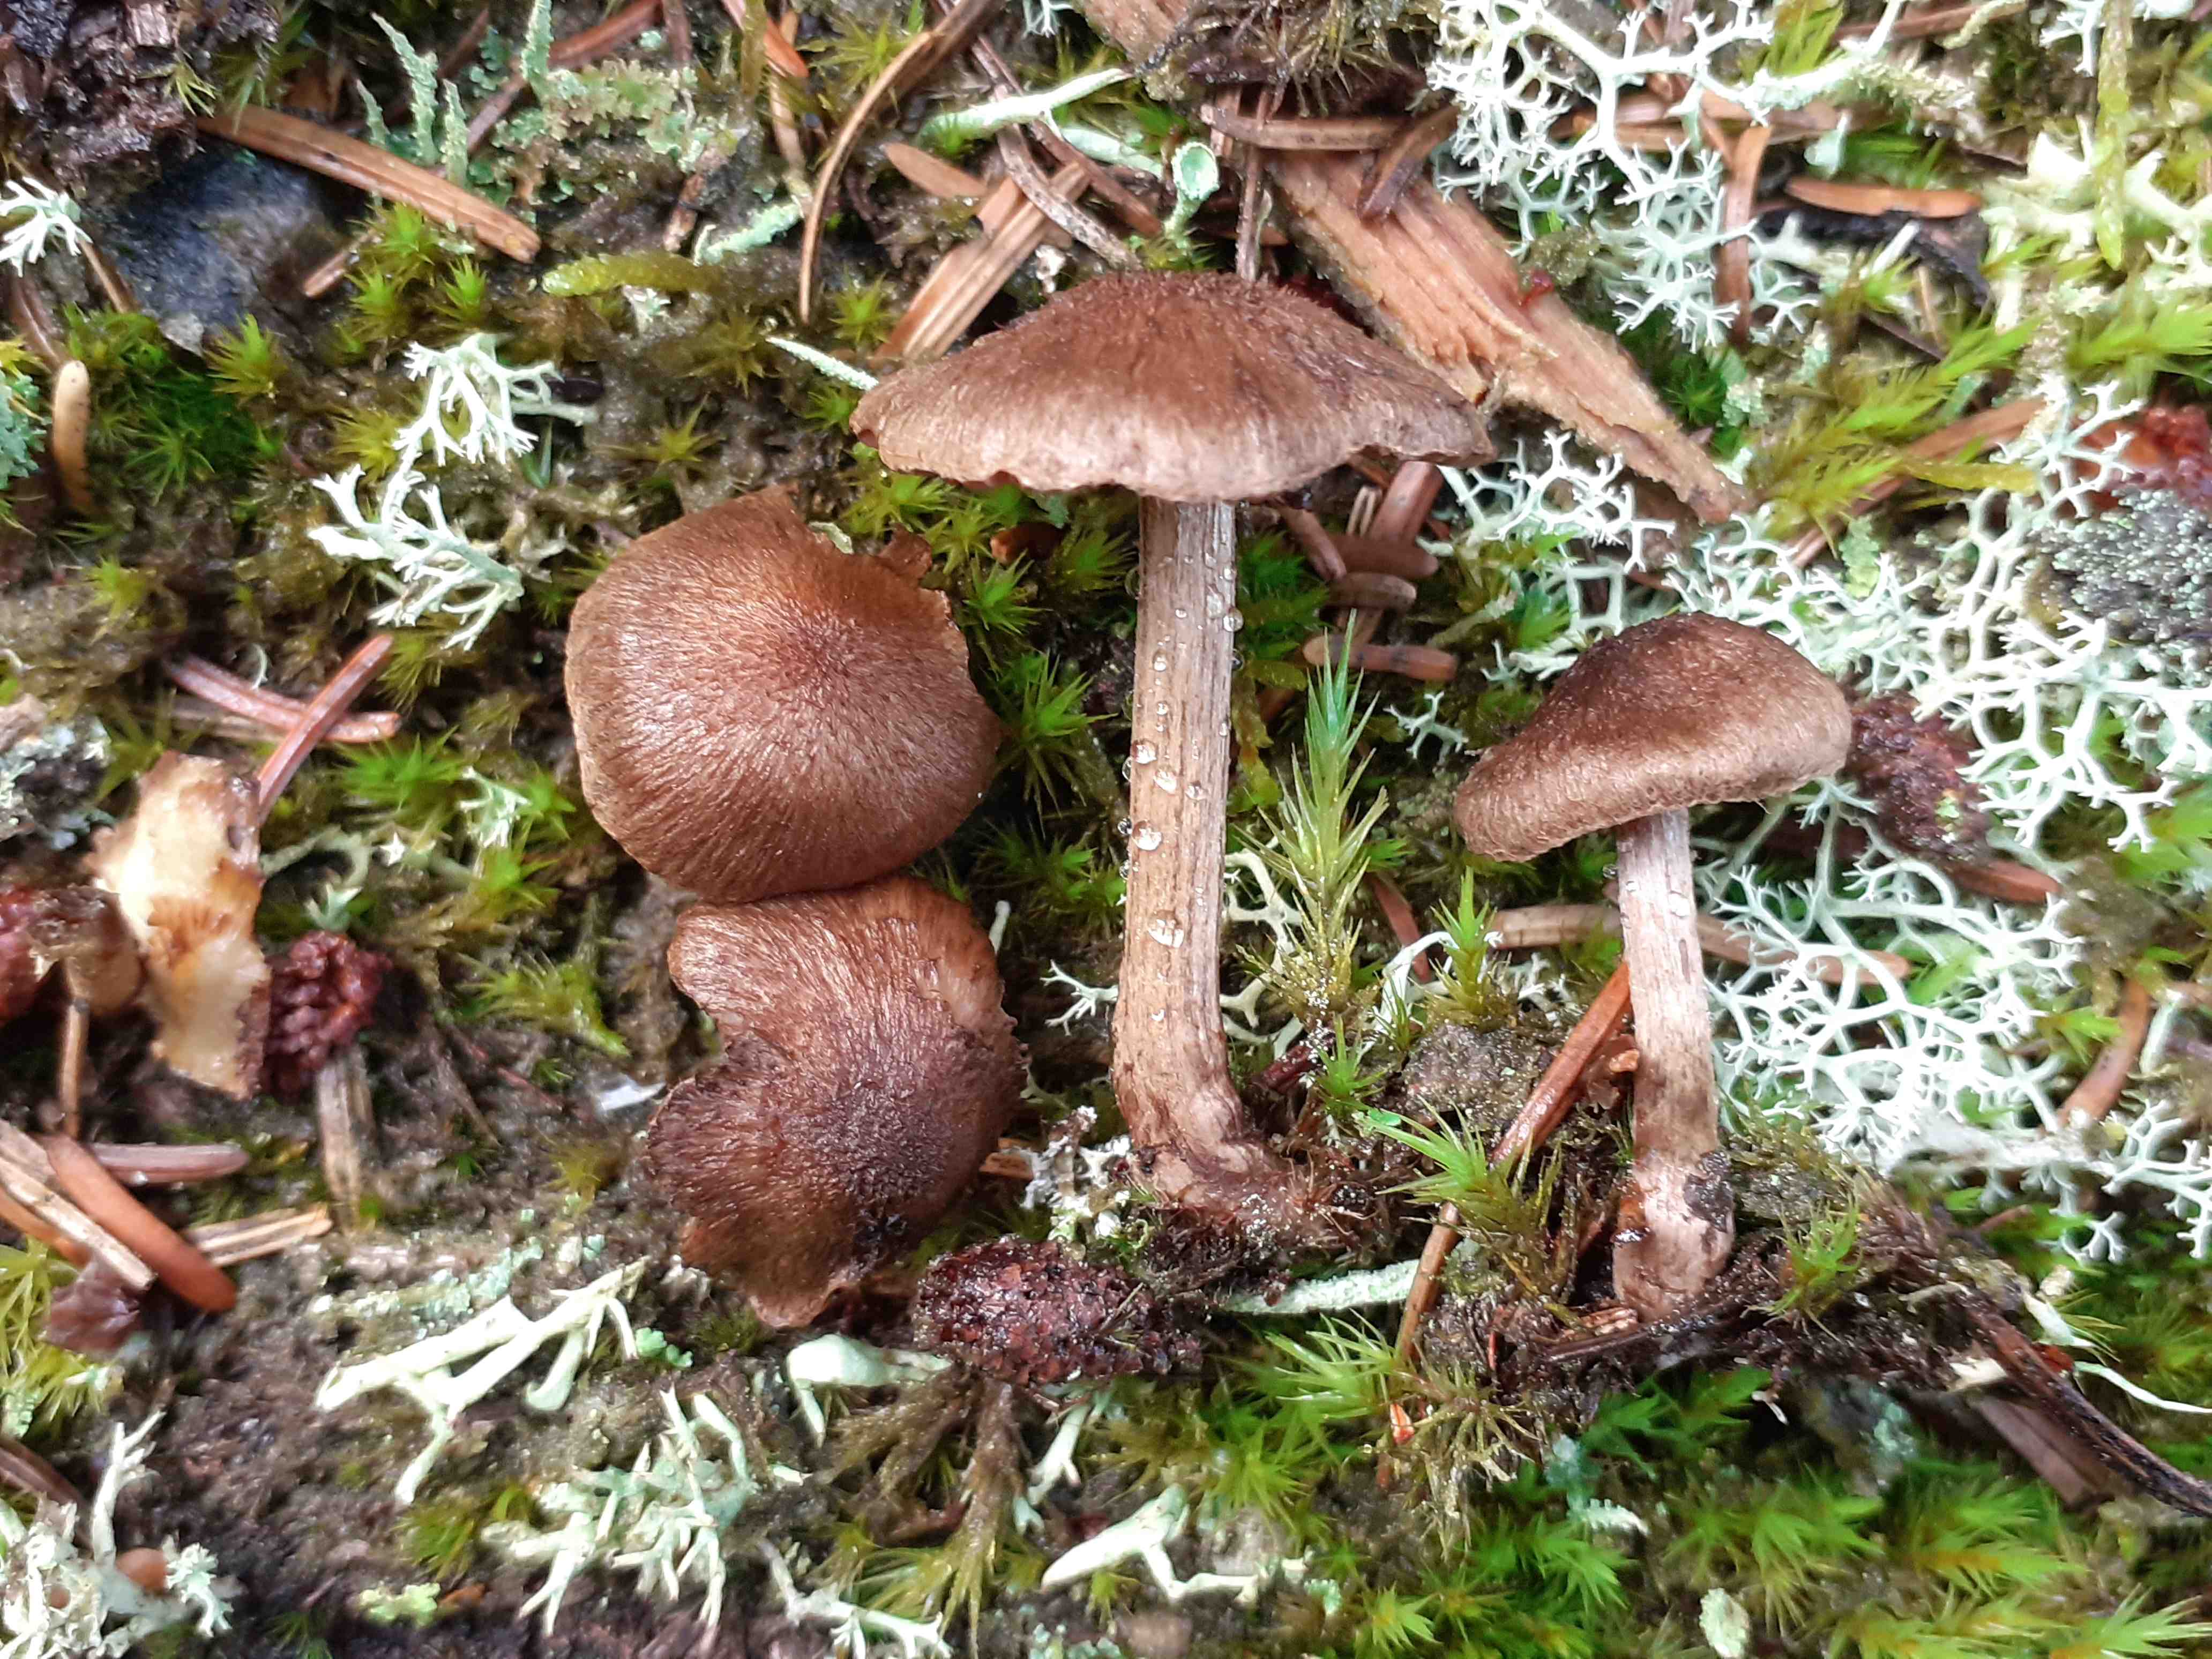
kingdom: Fungi
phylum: Basidiomycota
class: Agaricomycetes
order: Agaricales
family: Inocybaceae
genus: Inocybe
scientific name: Inocybe stellatospora
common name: spidsskællet trævlhat
